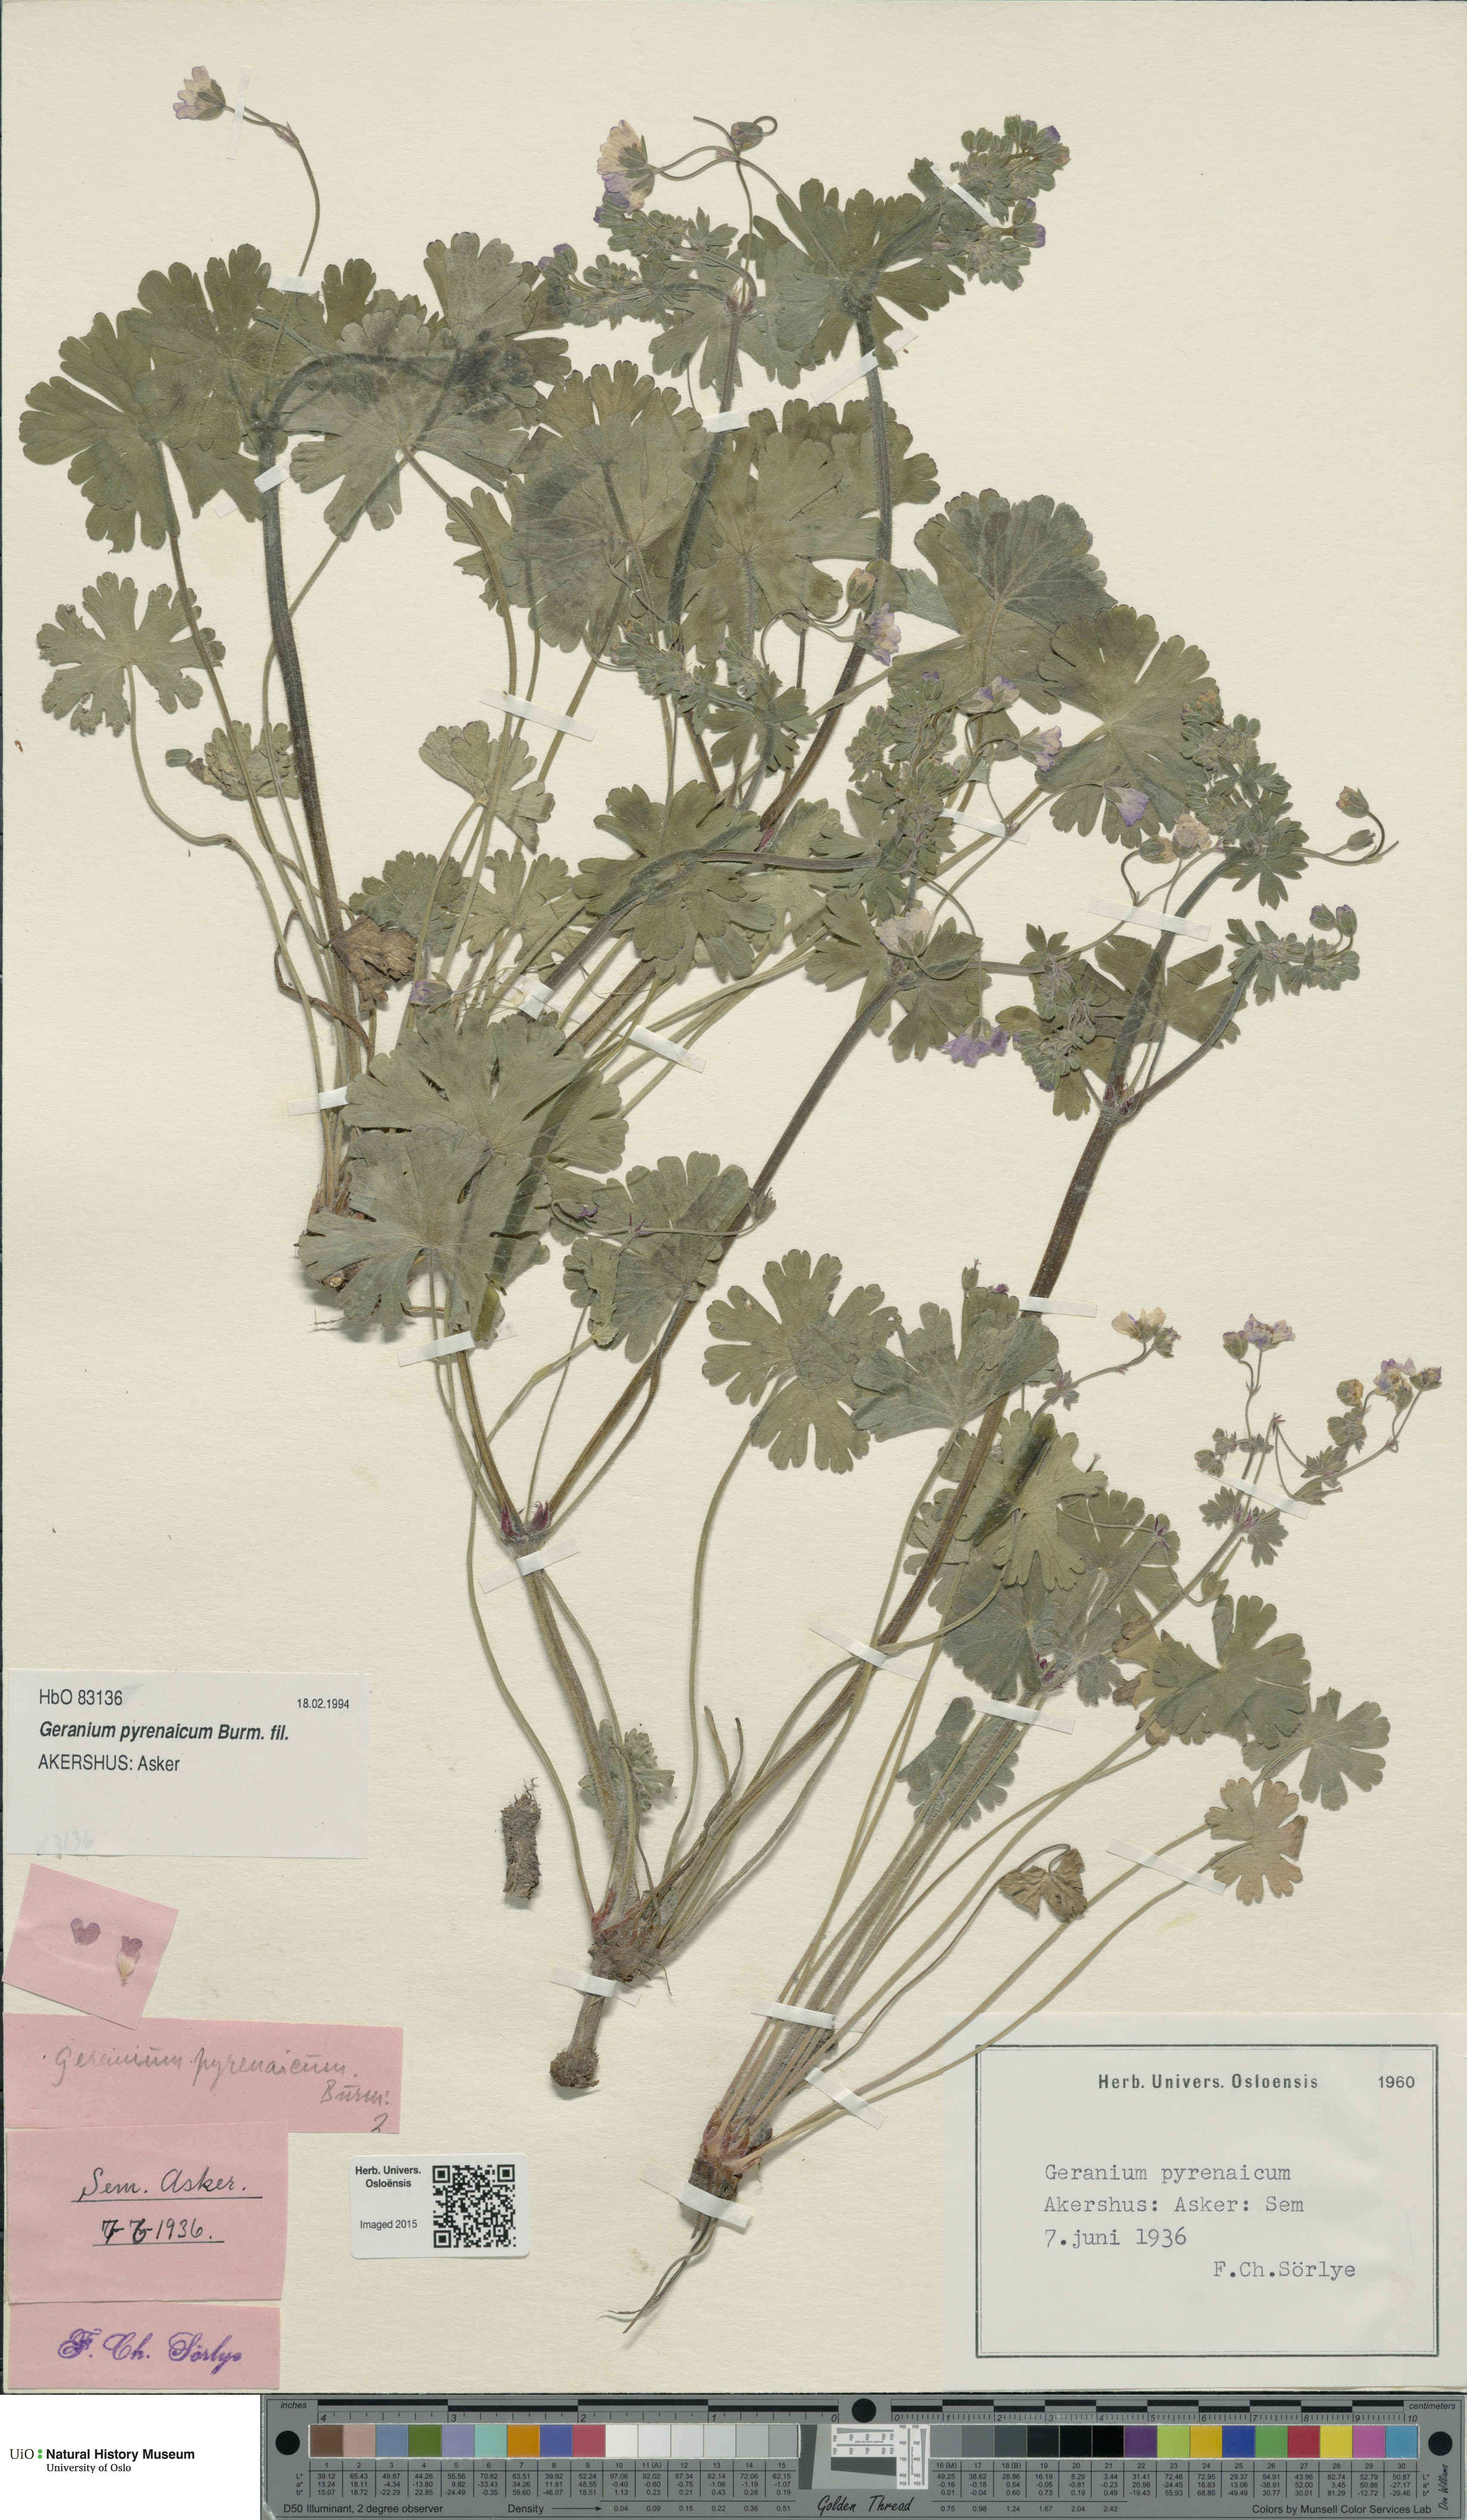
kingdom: Plantae
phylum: Tracheophyta
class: Magnoliopsida
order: Geraniales
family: Geraniaceae
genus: Geranium
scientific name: Geranium pyrenaicum
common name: Hedgerow crane's-bill
